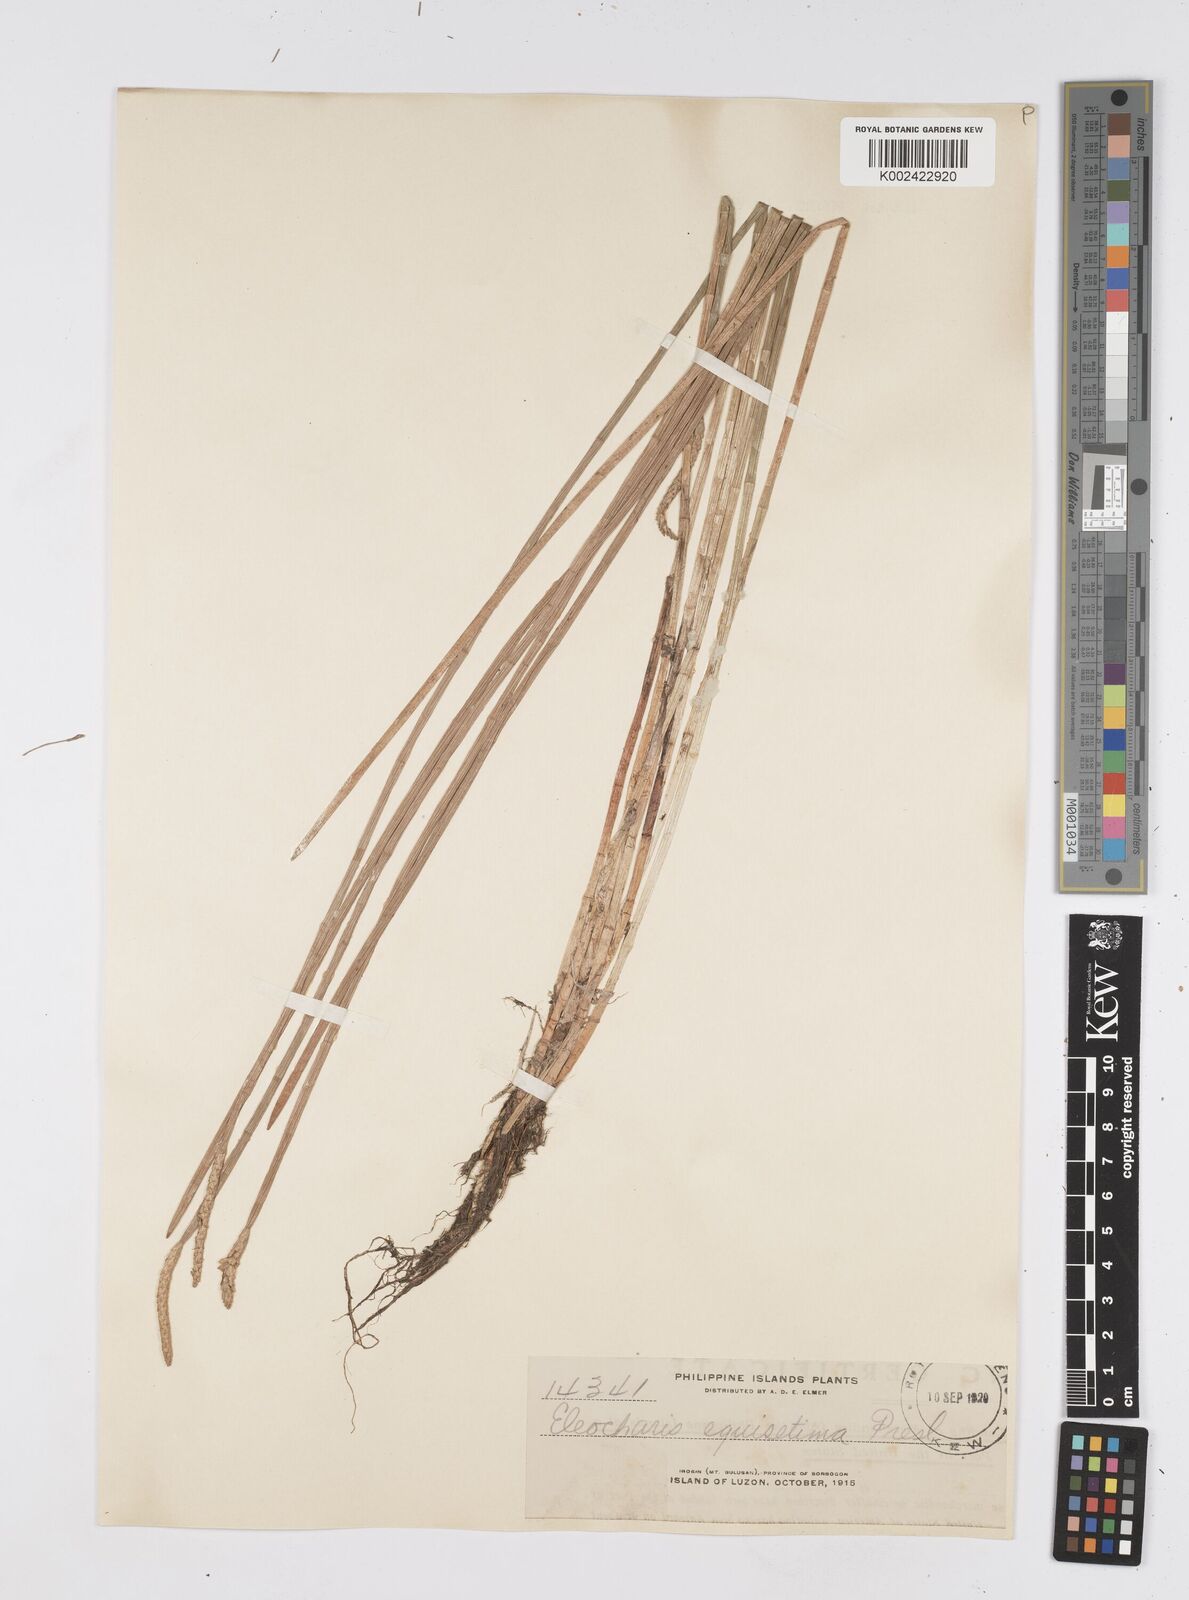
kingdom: Plantae
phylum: Tracheophyta
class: Liliopsida
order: Poales
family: Cyperaceae
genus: Eleocharis
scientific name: Eleocharis dulcis
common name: Chinese water chestnut
